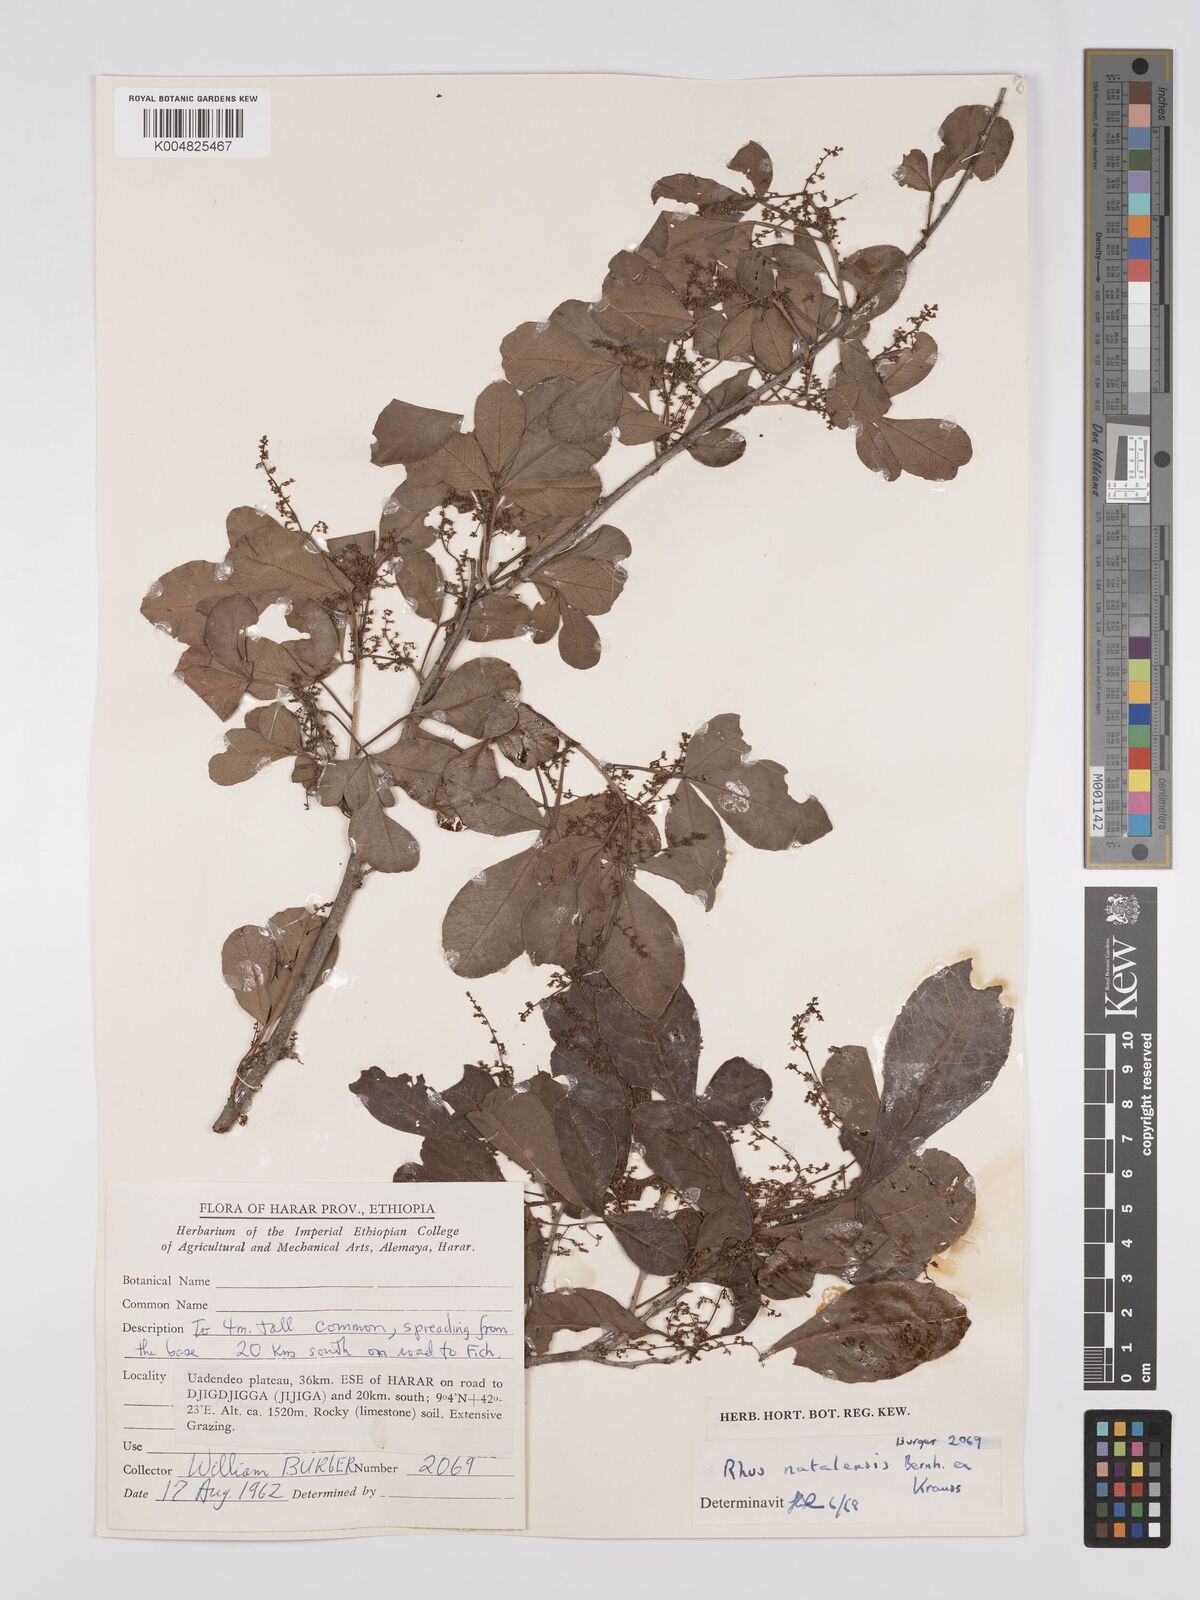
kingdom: Plantae
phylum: Tracheophyta
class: Magnoliopsida
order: Sapindales
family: Anacardiaceae
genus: Searsia
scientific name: Searsia natalensis
